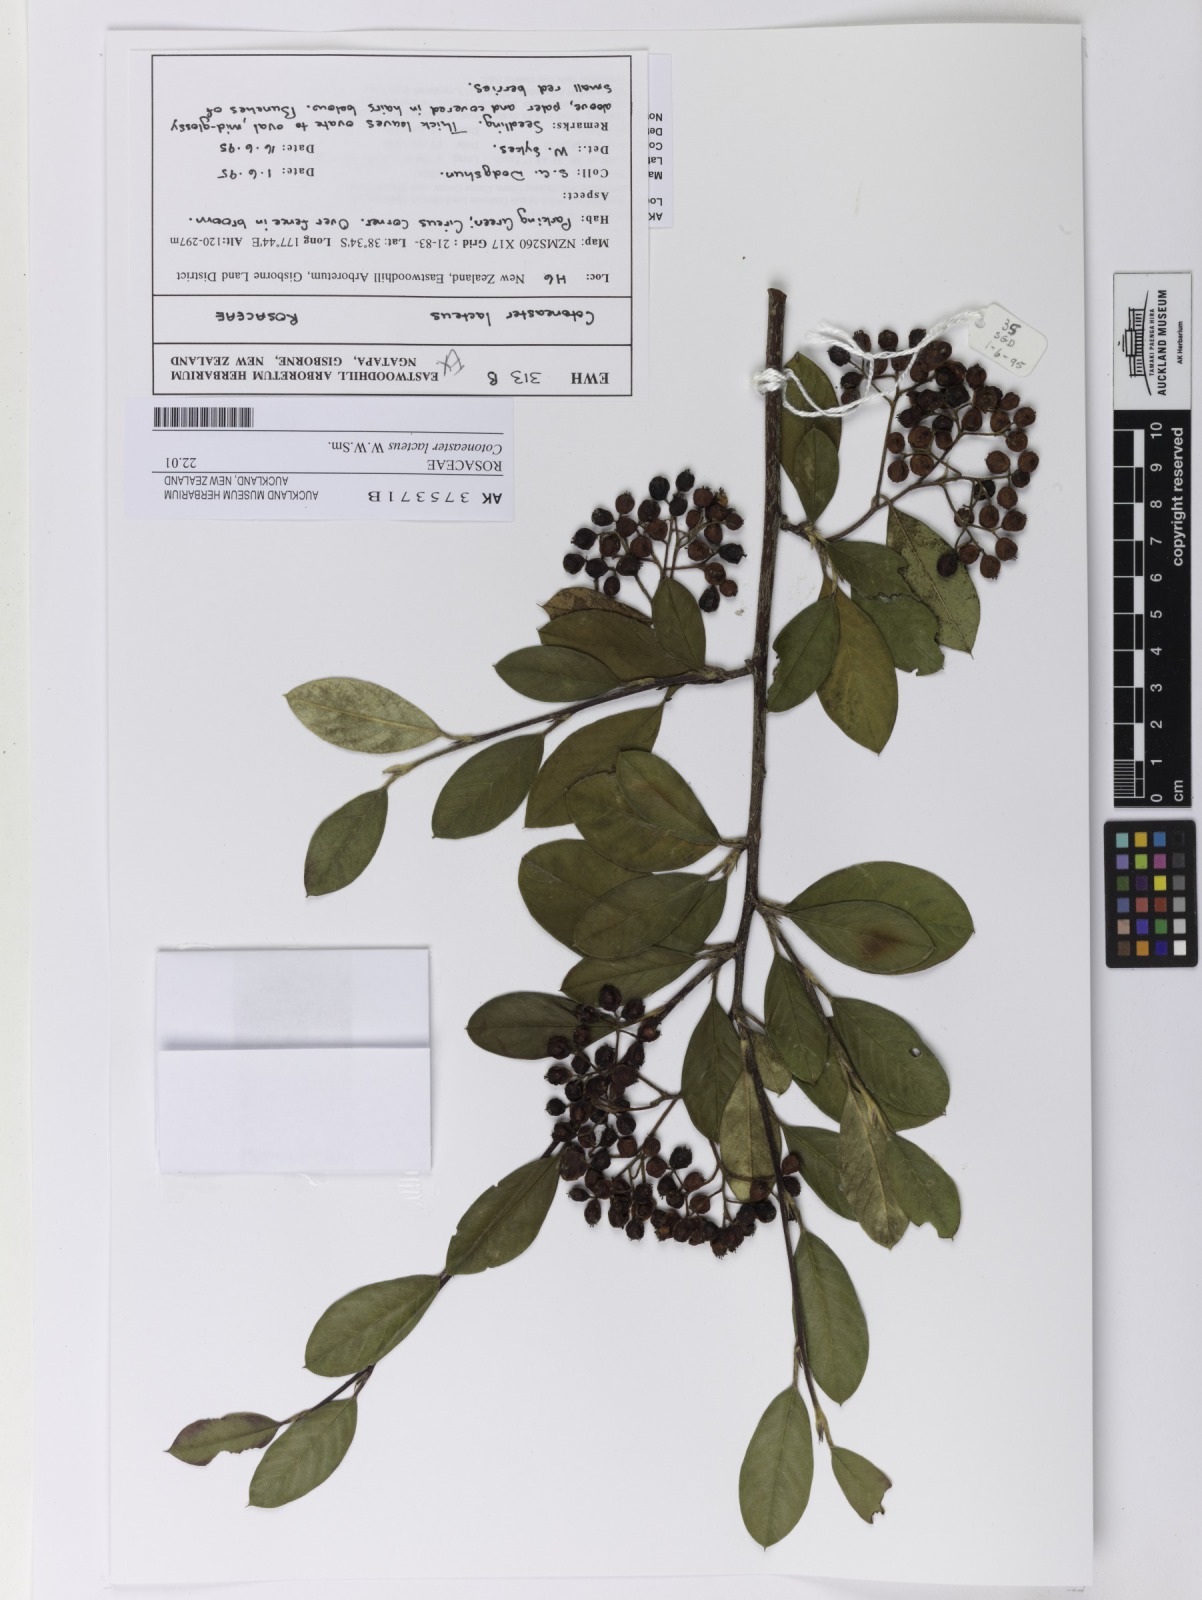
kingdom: Plantae
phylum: Tracheophyta
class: Magnoliopsida
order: Rosales
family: Rosaceae
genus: Cotoneaster
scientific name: Cotoneaster coriaceus
